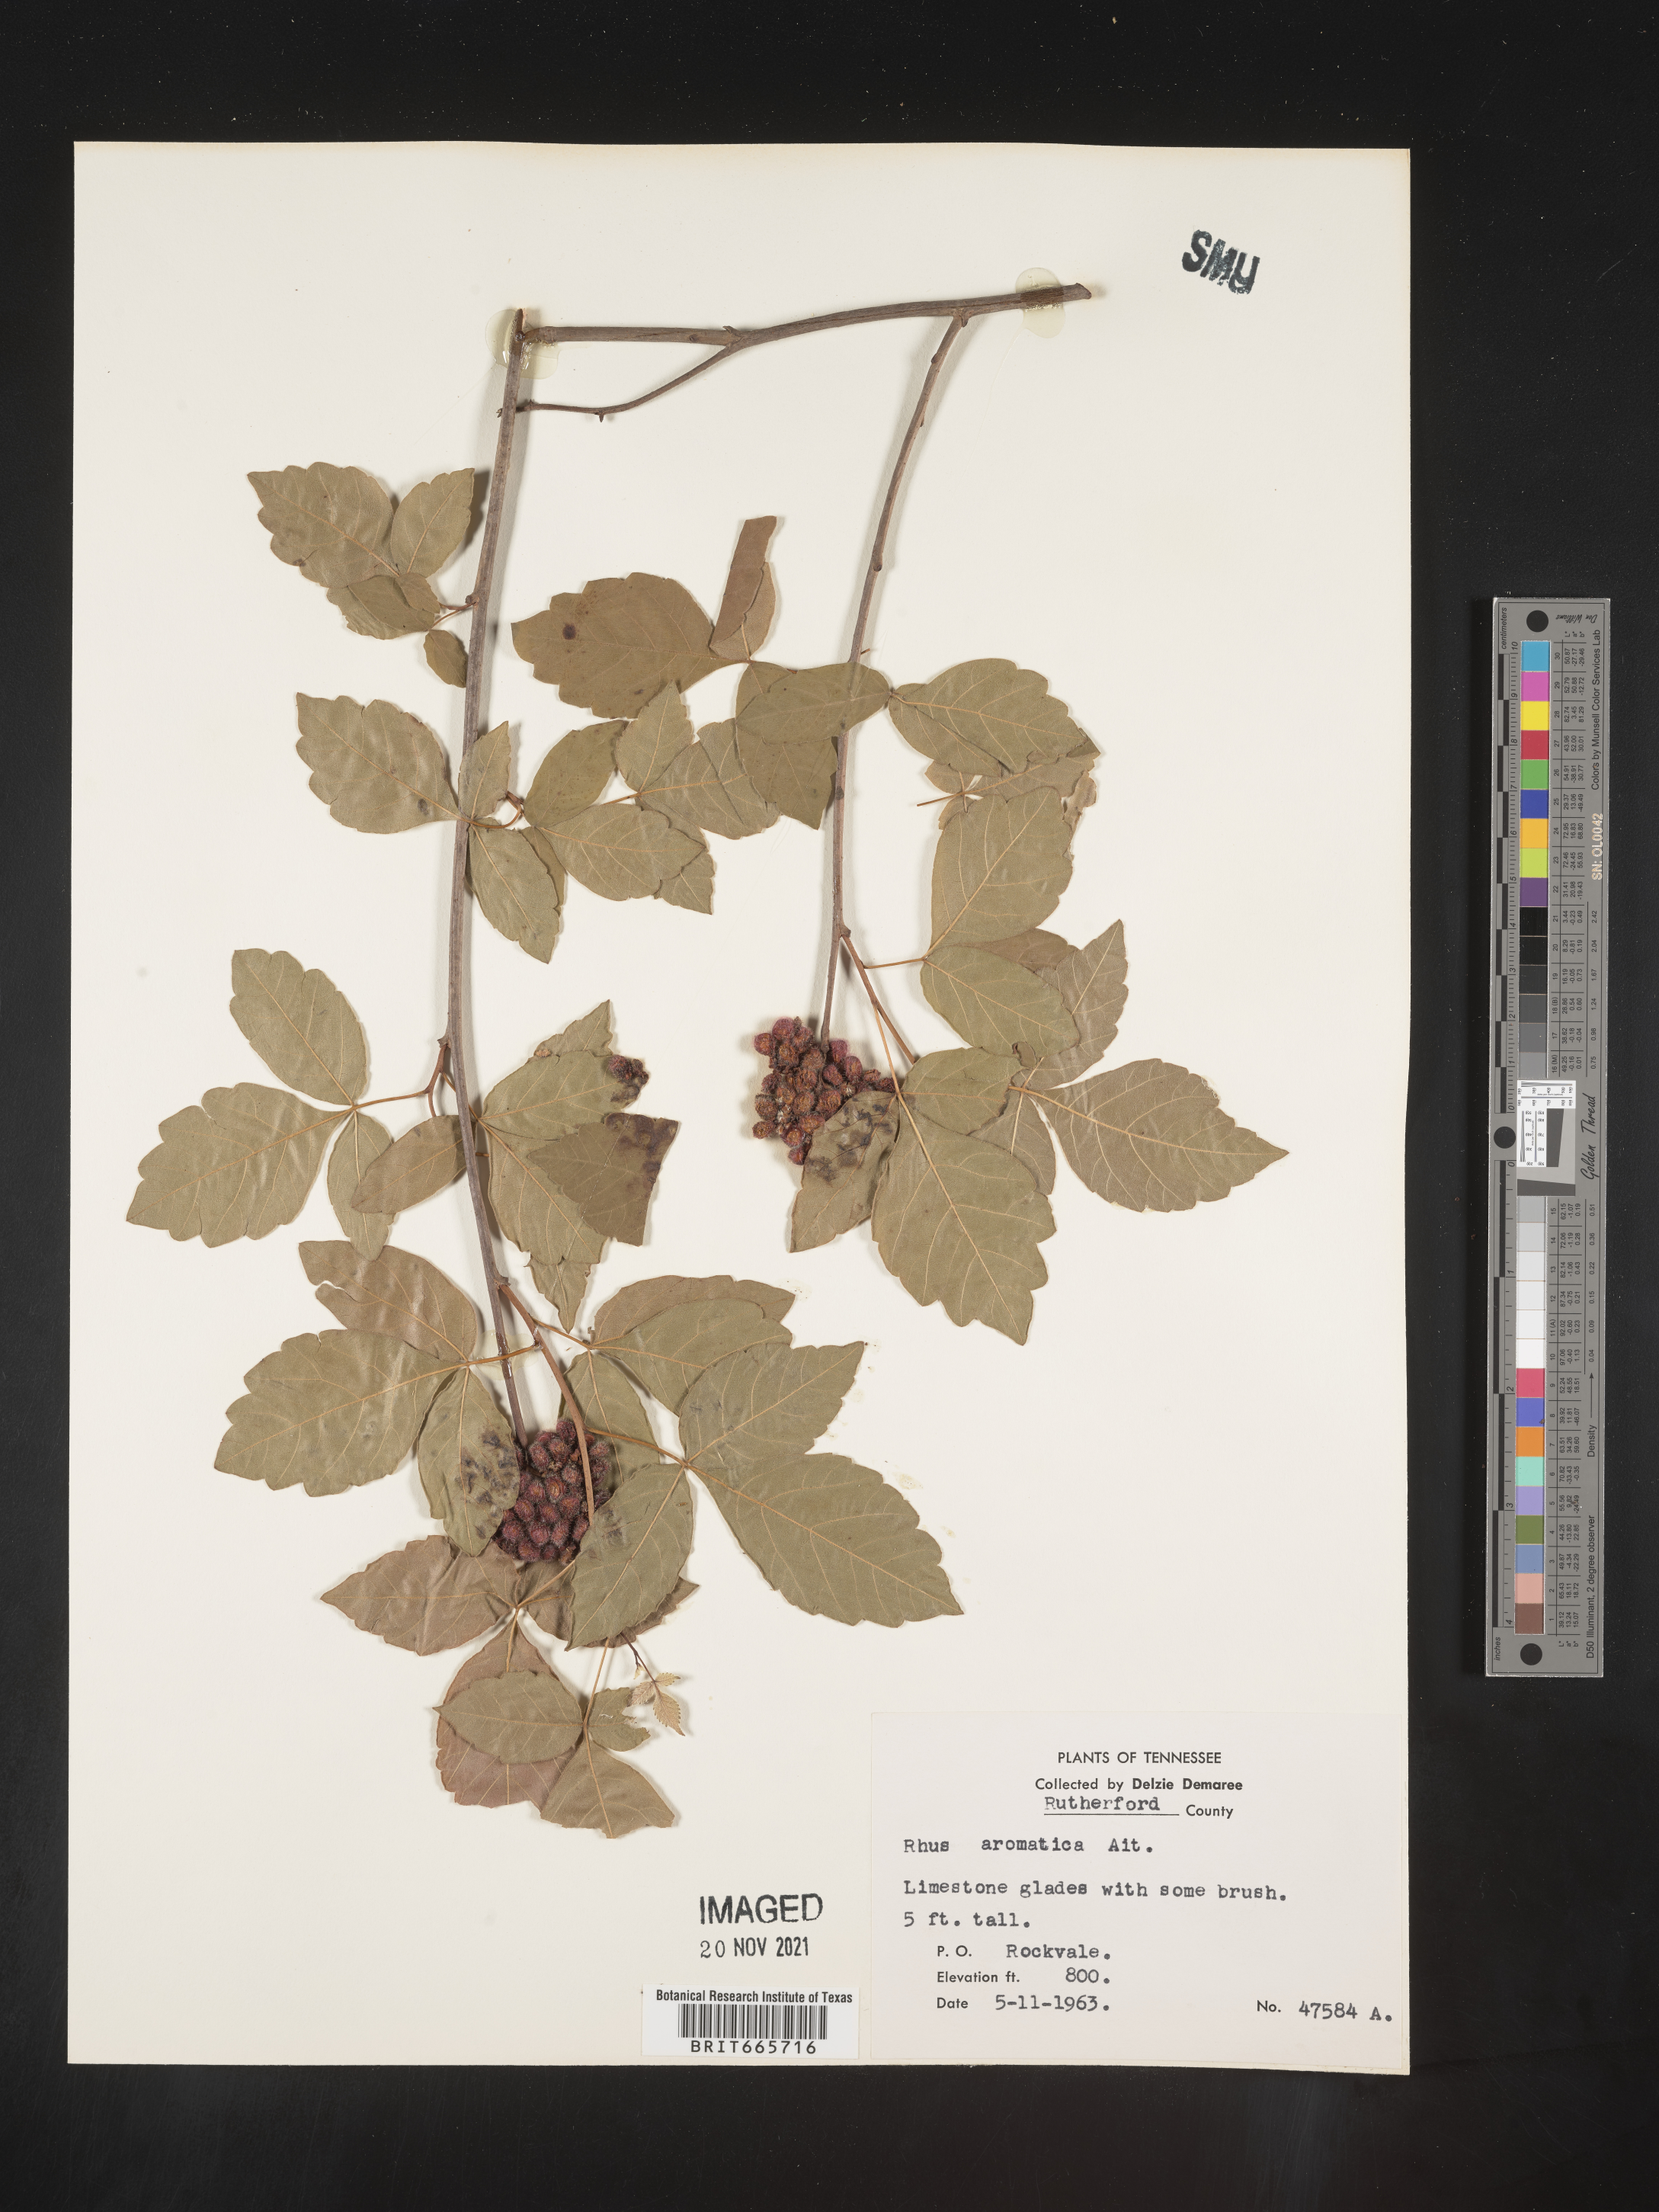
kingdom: Plantae
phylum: Tracheophyta
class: Magnoliopsida
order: Sapindales
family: Anacardiaceae
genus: Rhus
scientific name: Rhus aromatica
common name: Aromatic sumac
